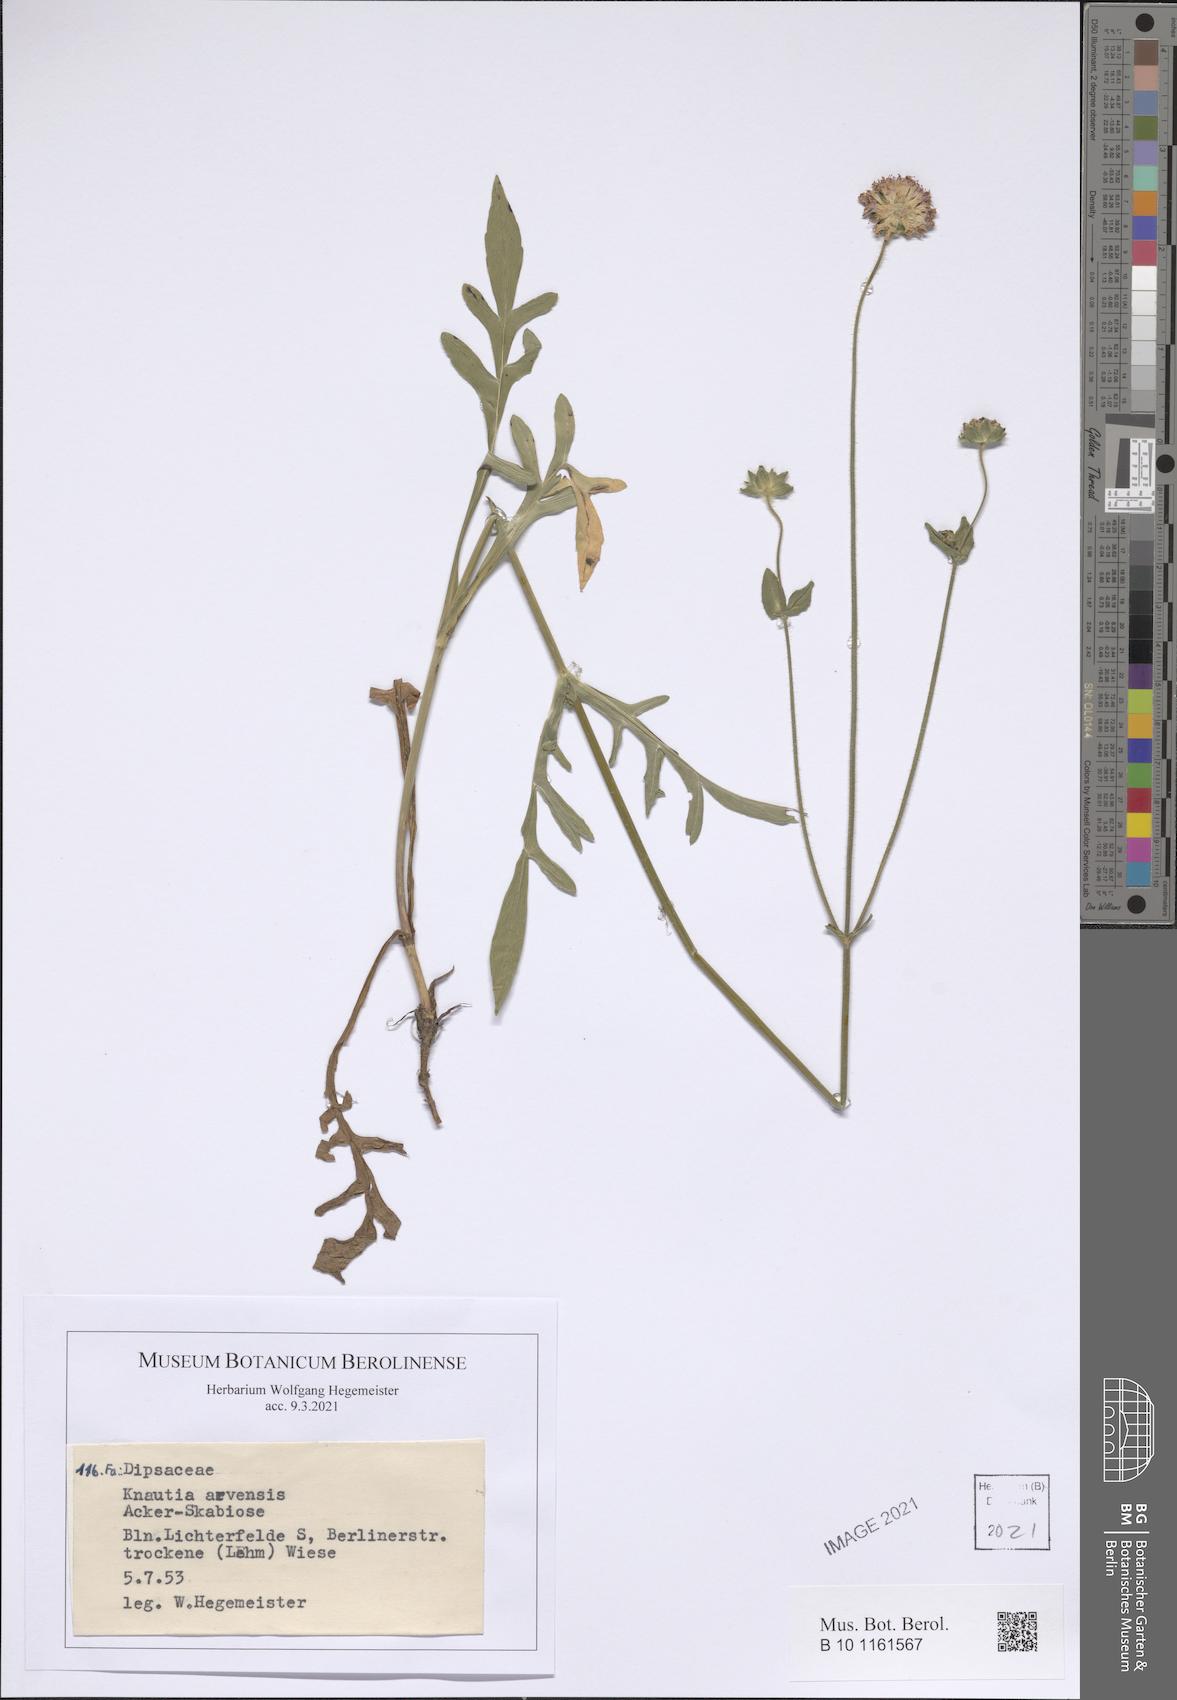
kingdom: Plantae
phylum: Tracheophyta
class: Magnoliopsida
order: Dipsacales
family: Caprifoliaceae
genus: Knautia
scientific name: Knautia arvensis
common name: Field scabiosa
